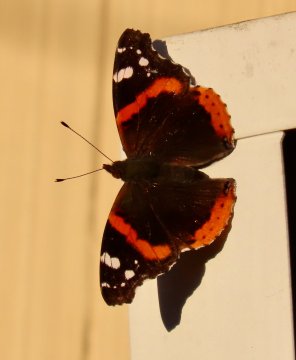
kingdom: Animalia
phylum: Arthropoda
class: Insecta
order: Lepidoptera
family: Nymphalidae
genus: Vanessa
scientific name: Vanessa atalanta
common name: Red Admiral
